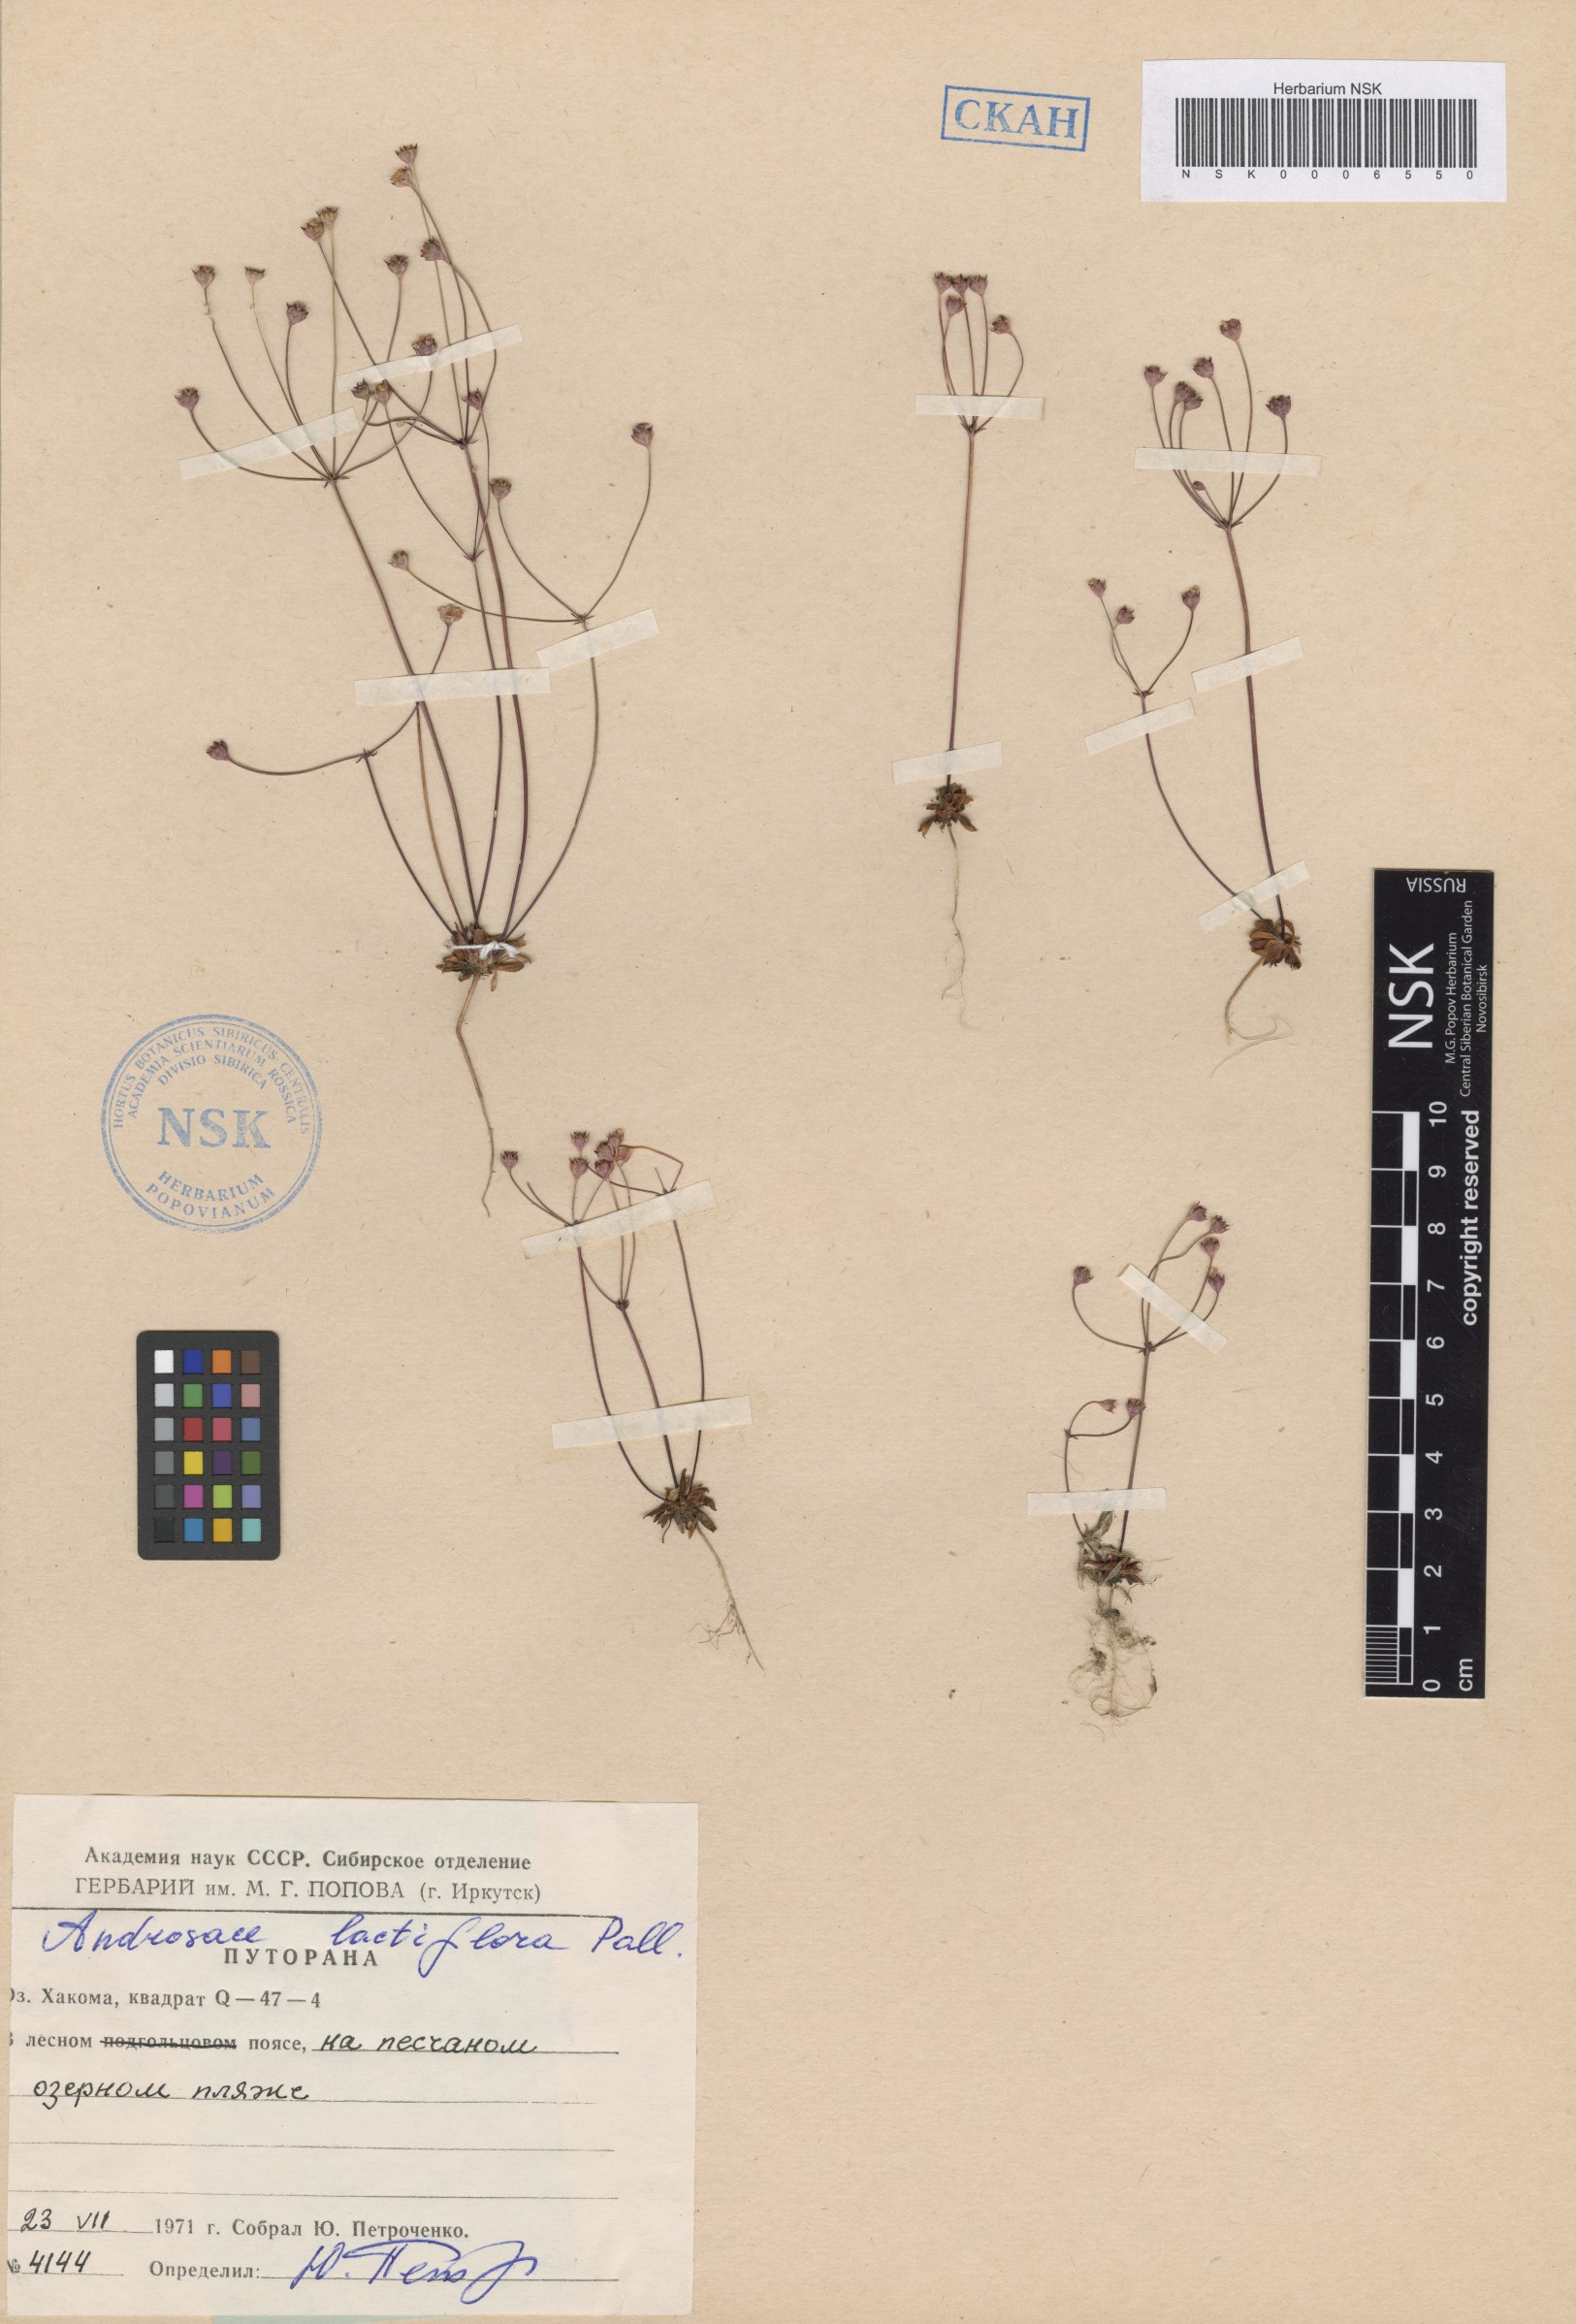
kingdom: Plantae
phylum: Tracheophyta
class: Magnoliopsida
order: Ericales
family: Primulaceae
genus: Androsace
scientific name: Androsace lactiflora
